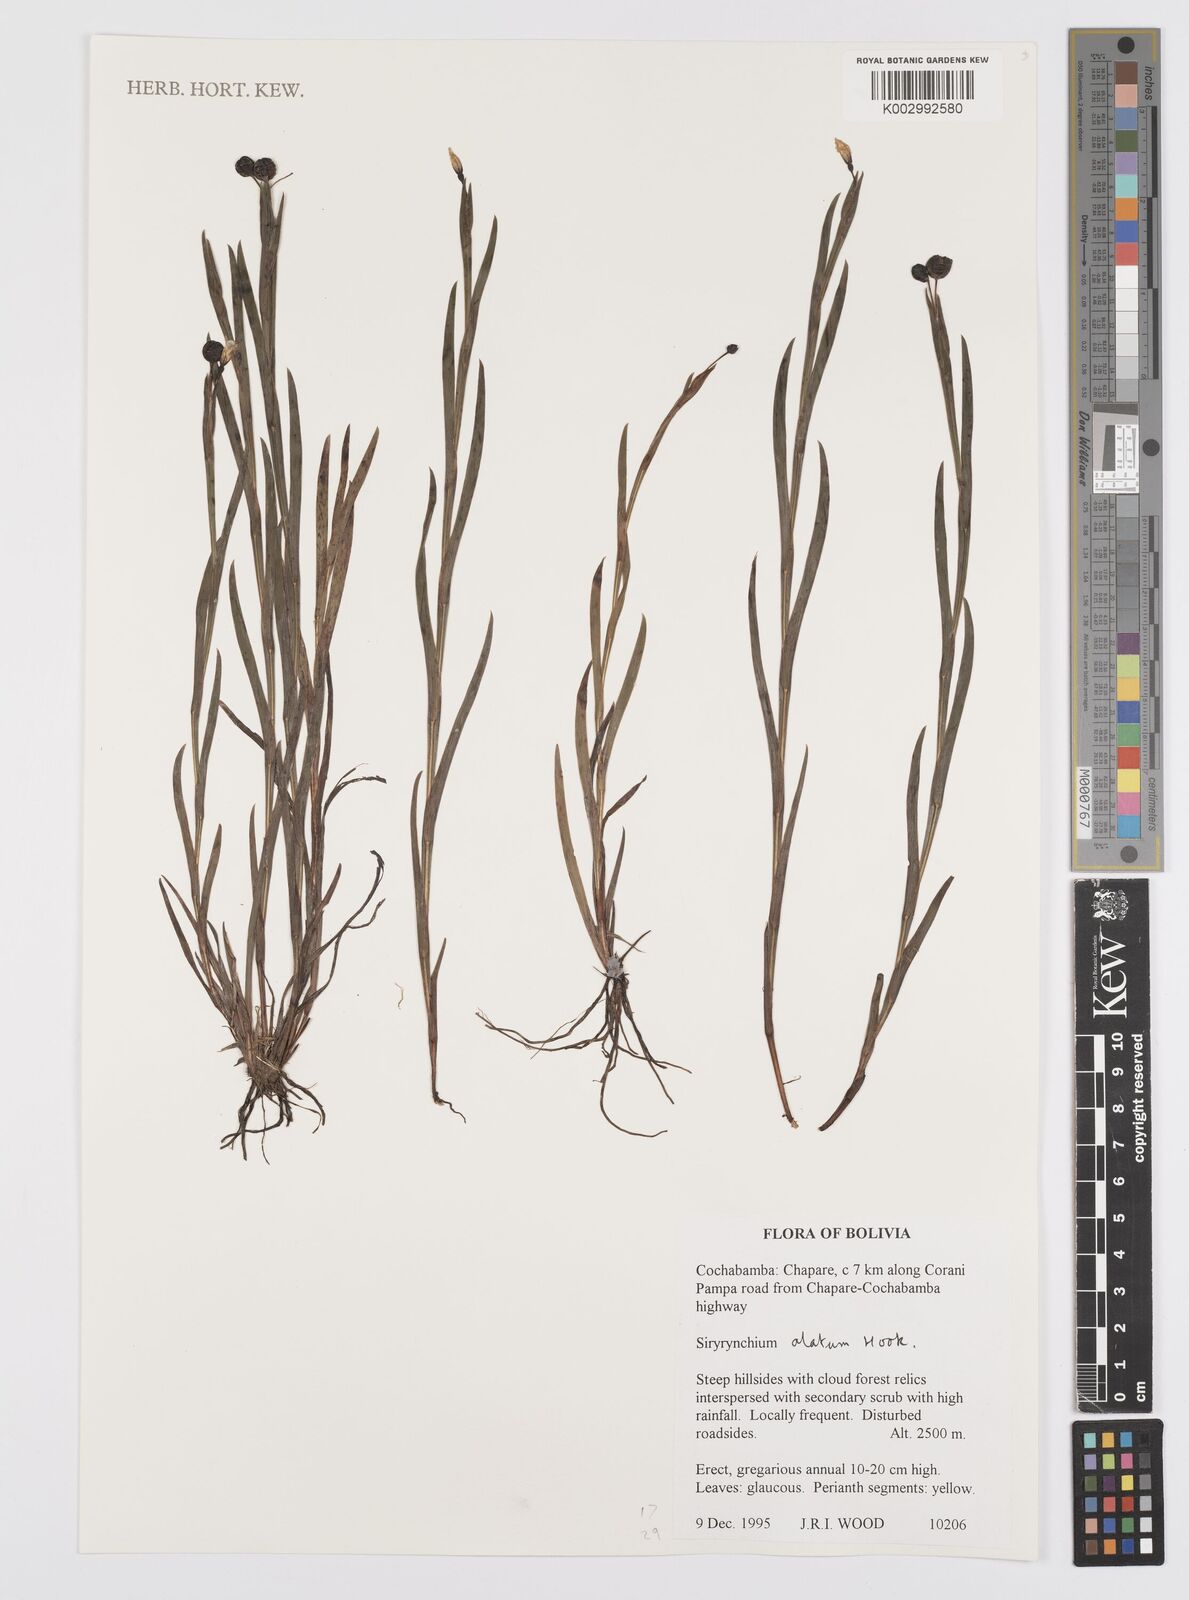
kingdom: Plantae
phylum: Tracheophyta
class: Liliopsida
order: Asparagales
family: Iridaceae
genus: Sisyrinchium
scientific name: Sisyrinchium vaginatum
